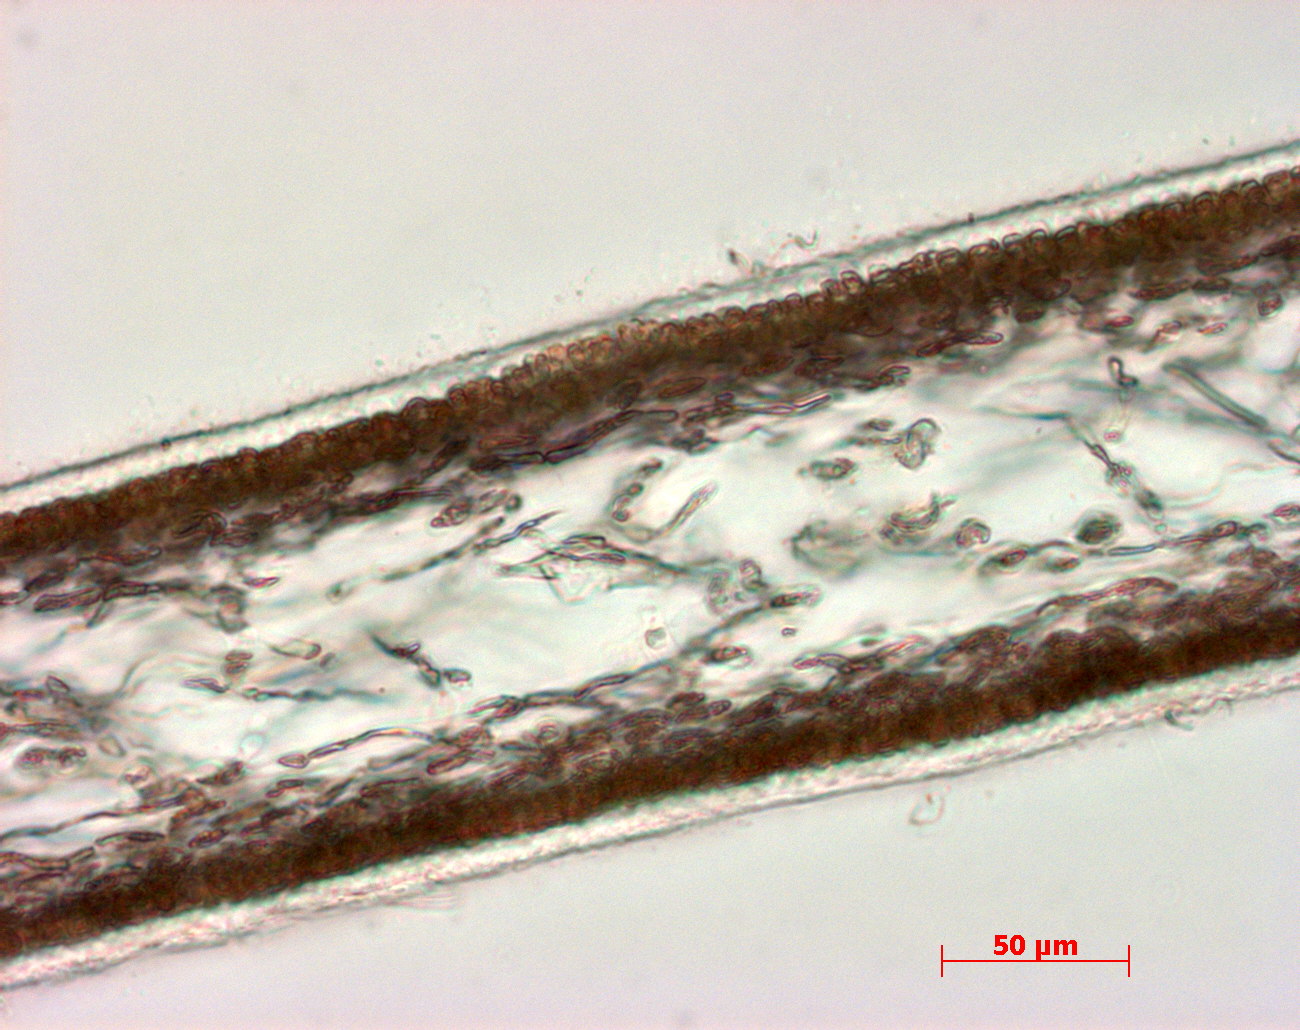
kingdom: Plantae
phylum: Rhodophyta
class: Florideophyceae
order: Halymeniales
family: Halymeniaceae
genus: Cryptonemia
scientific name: Cryptonemia latissima
